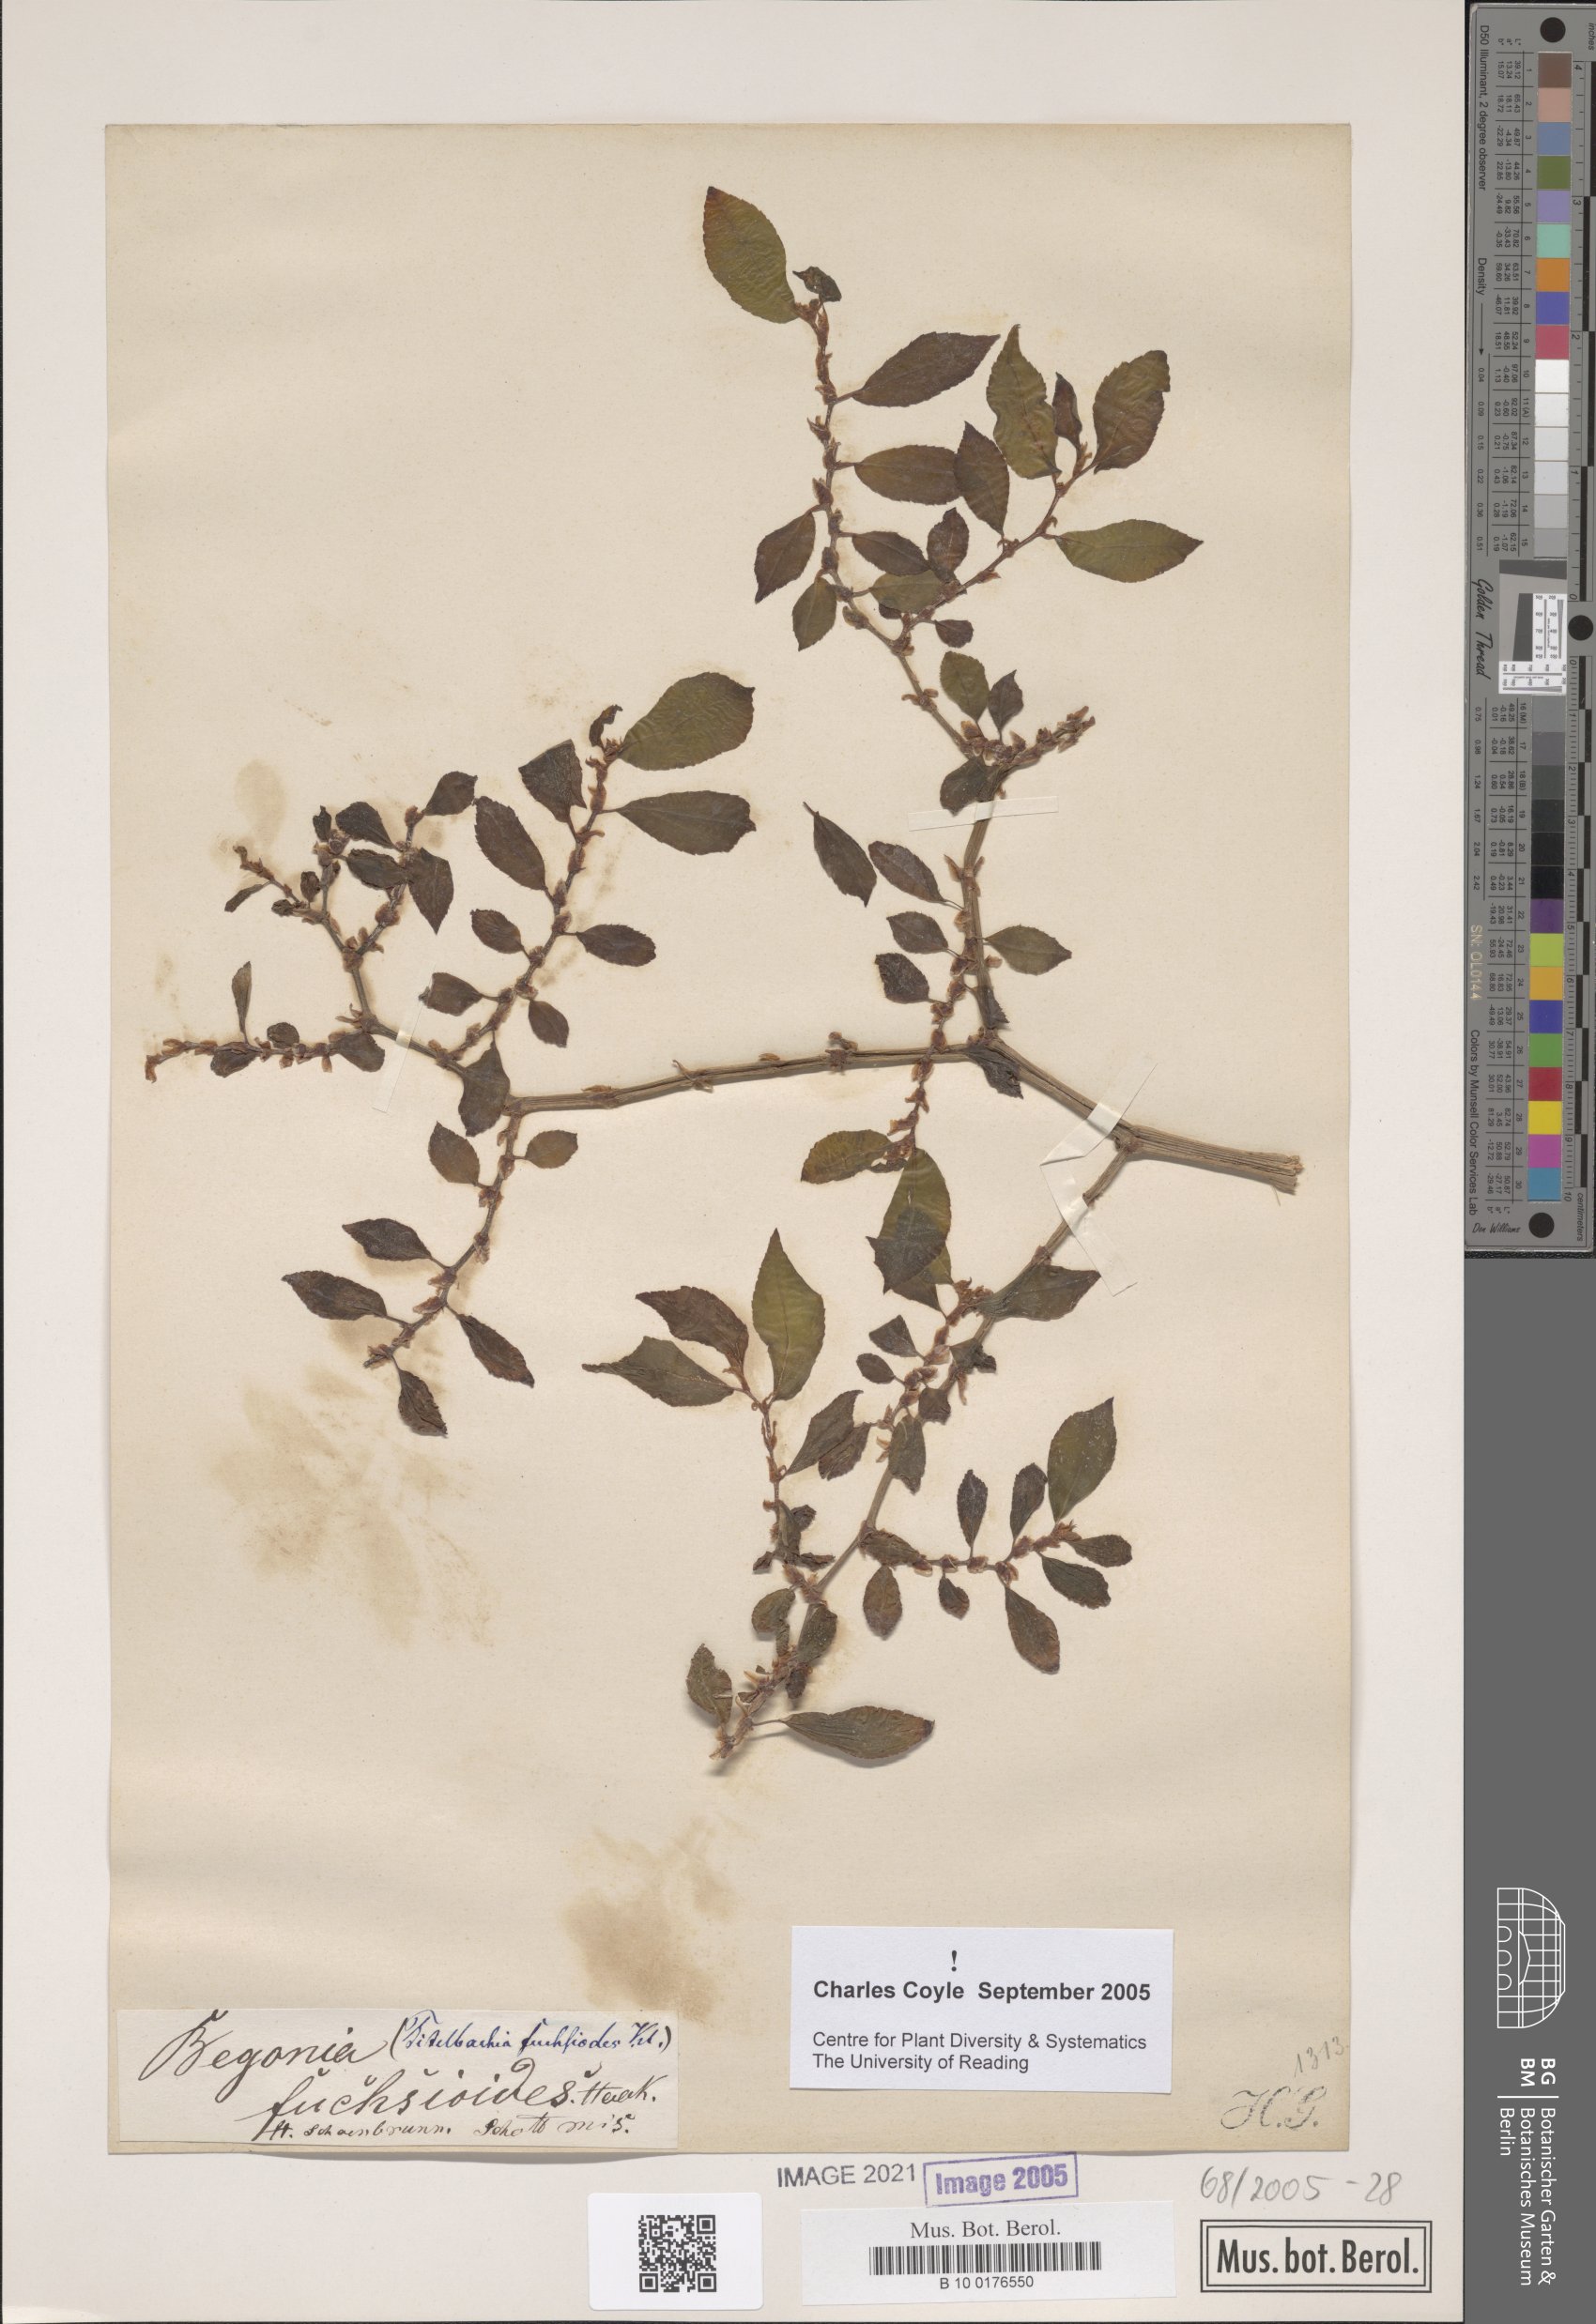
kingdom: Plantae
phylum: Tracheophyta
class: Magnoliopsida
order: Cucurbitales
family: Begoniaceae
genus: Begonia
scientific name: Begonia fuchsioides
